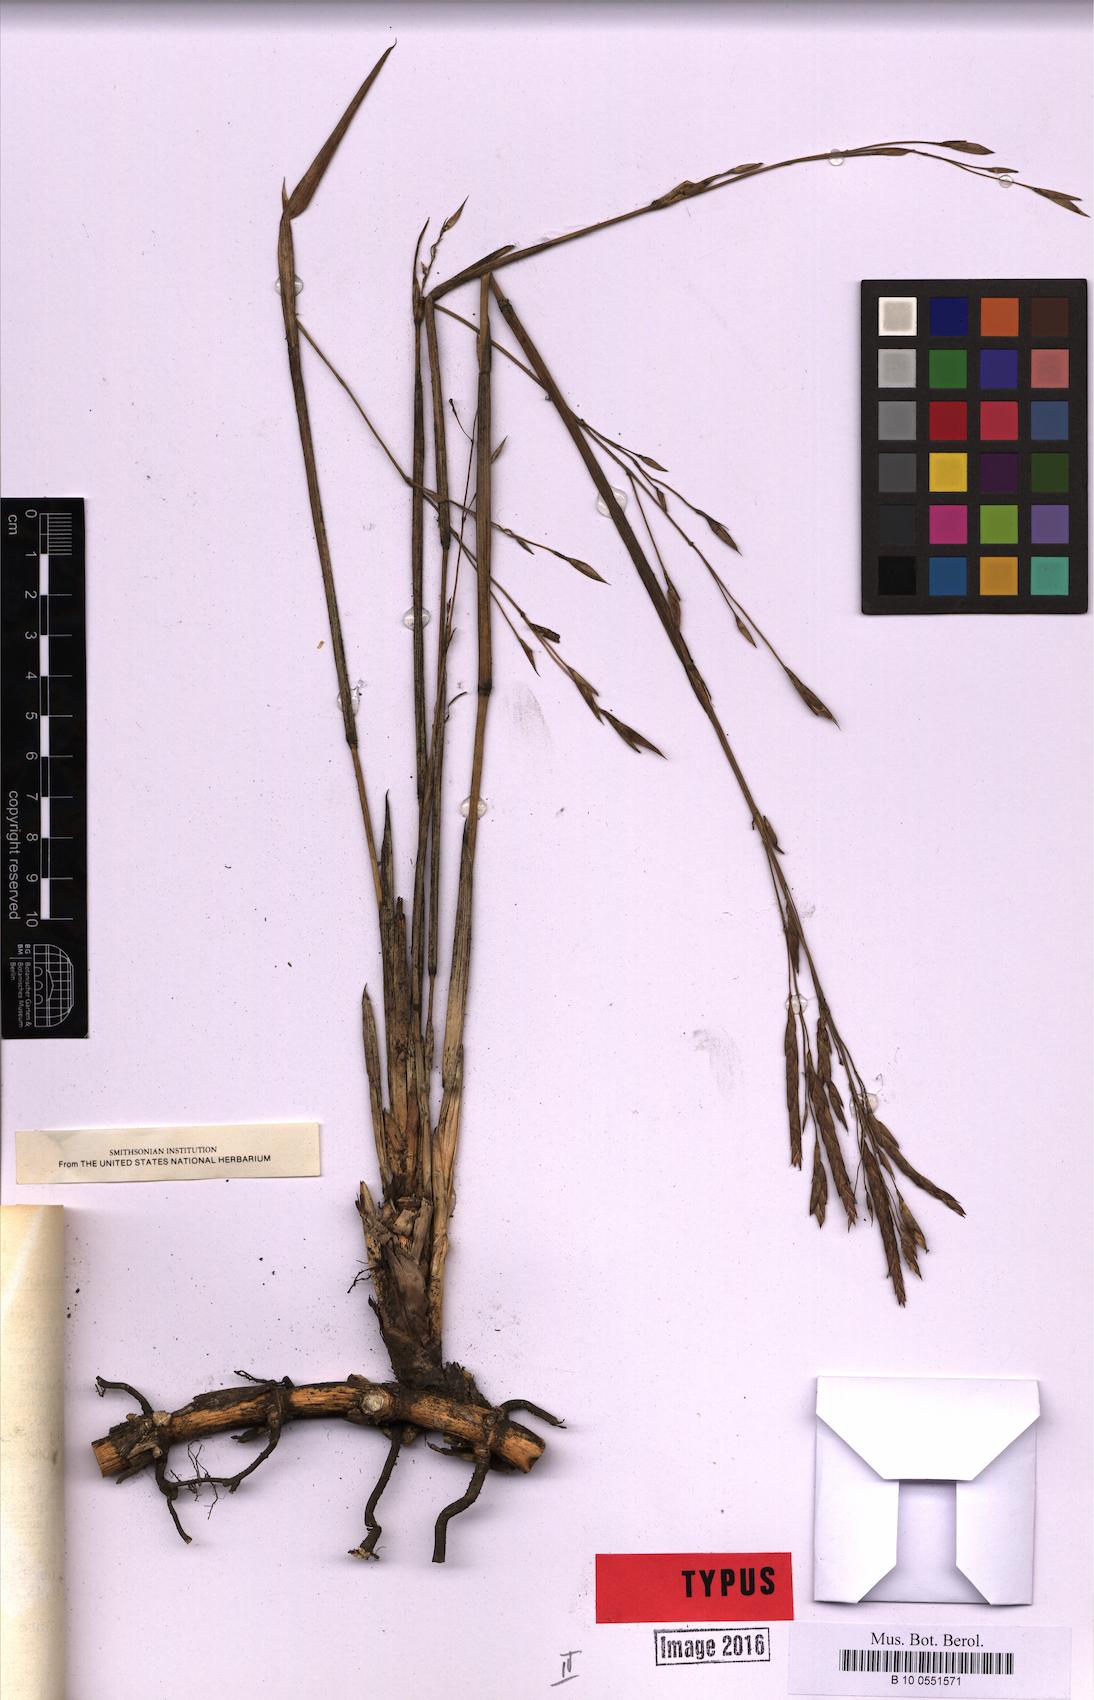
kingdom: Plantae
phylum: Tracheophyta
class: Liliopsida
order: Poales
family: Poaceae
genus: Arundinaria
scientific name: Arundinaria tecta
